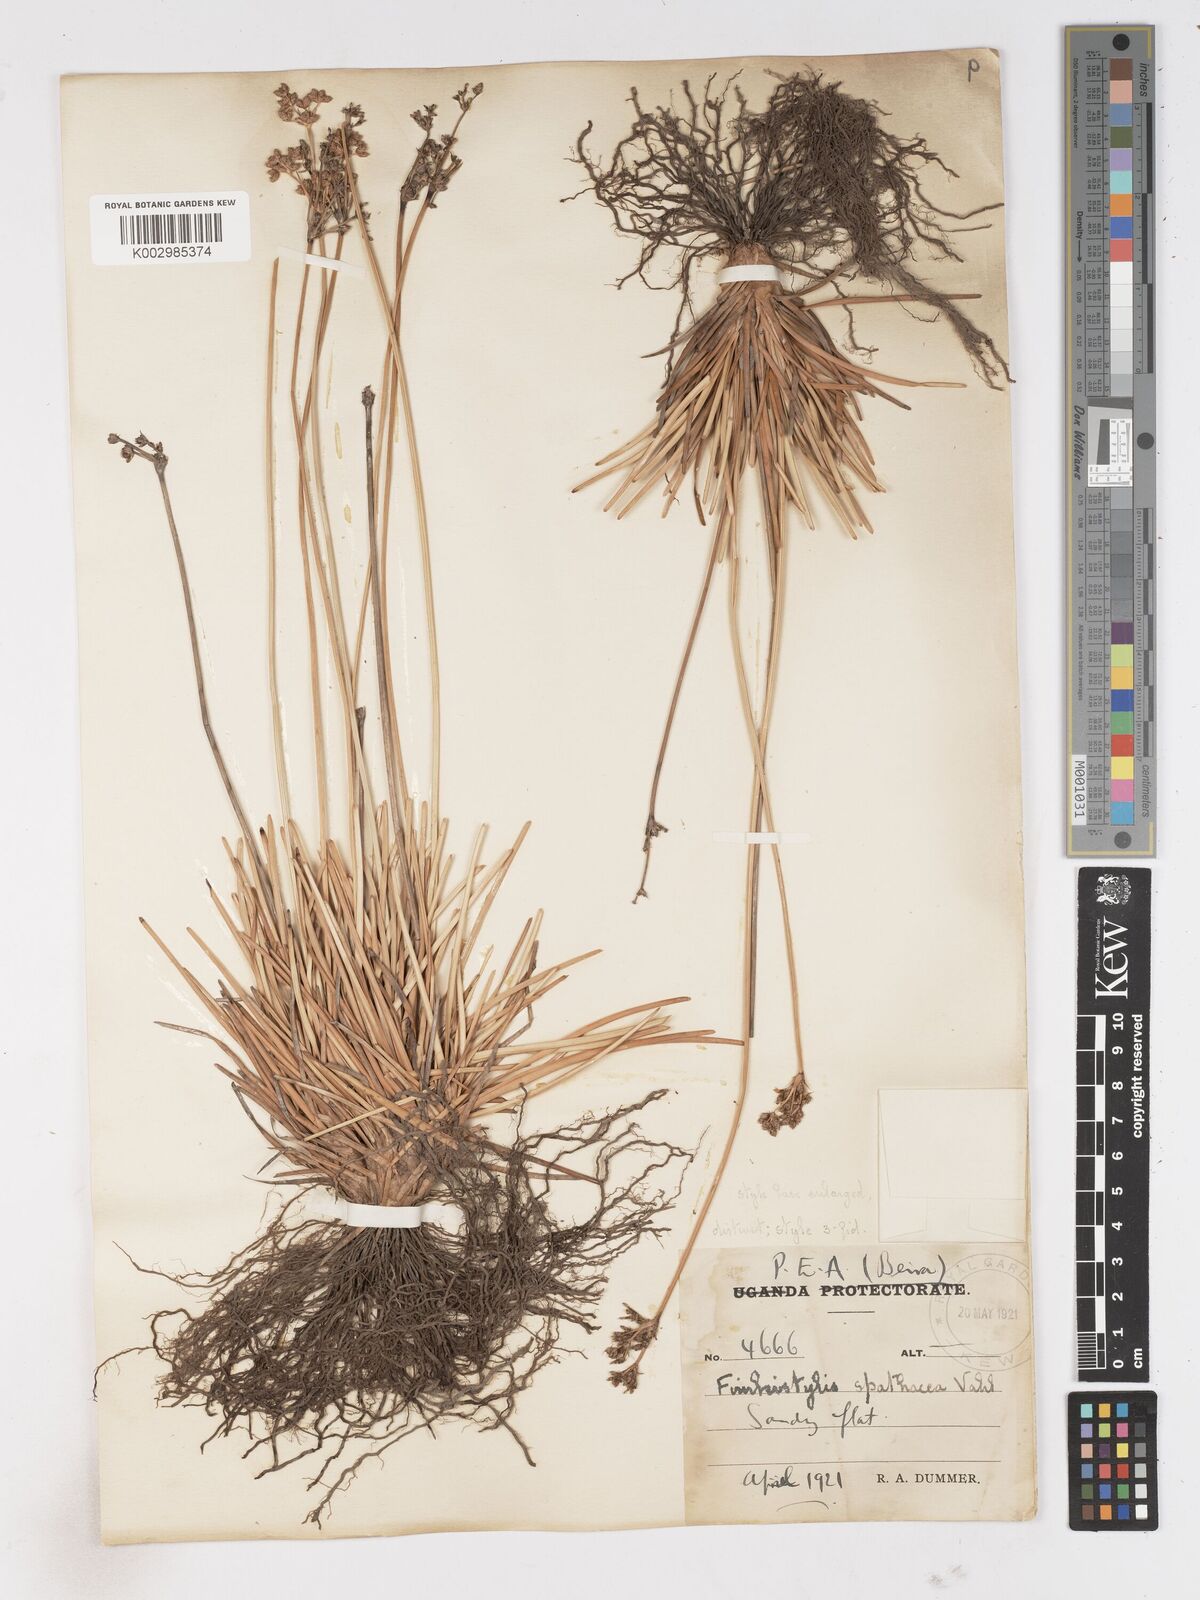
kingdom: Plantae
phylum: Tracheophyta
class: Liliopsida
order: Poales
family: Cyperaceae
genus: Fimbristylis
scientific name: Fimbristylis cymosa
